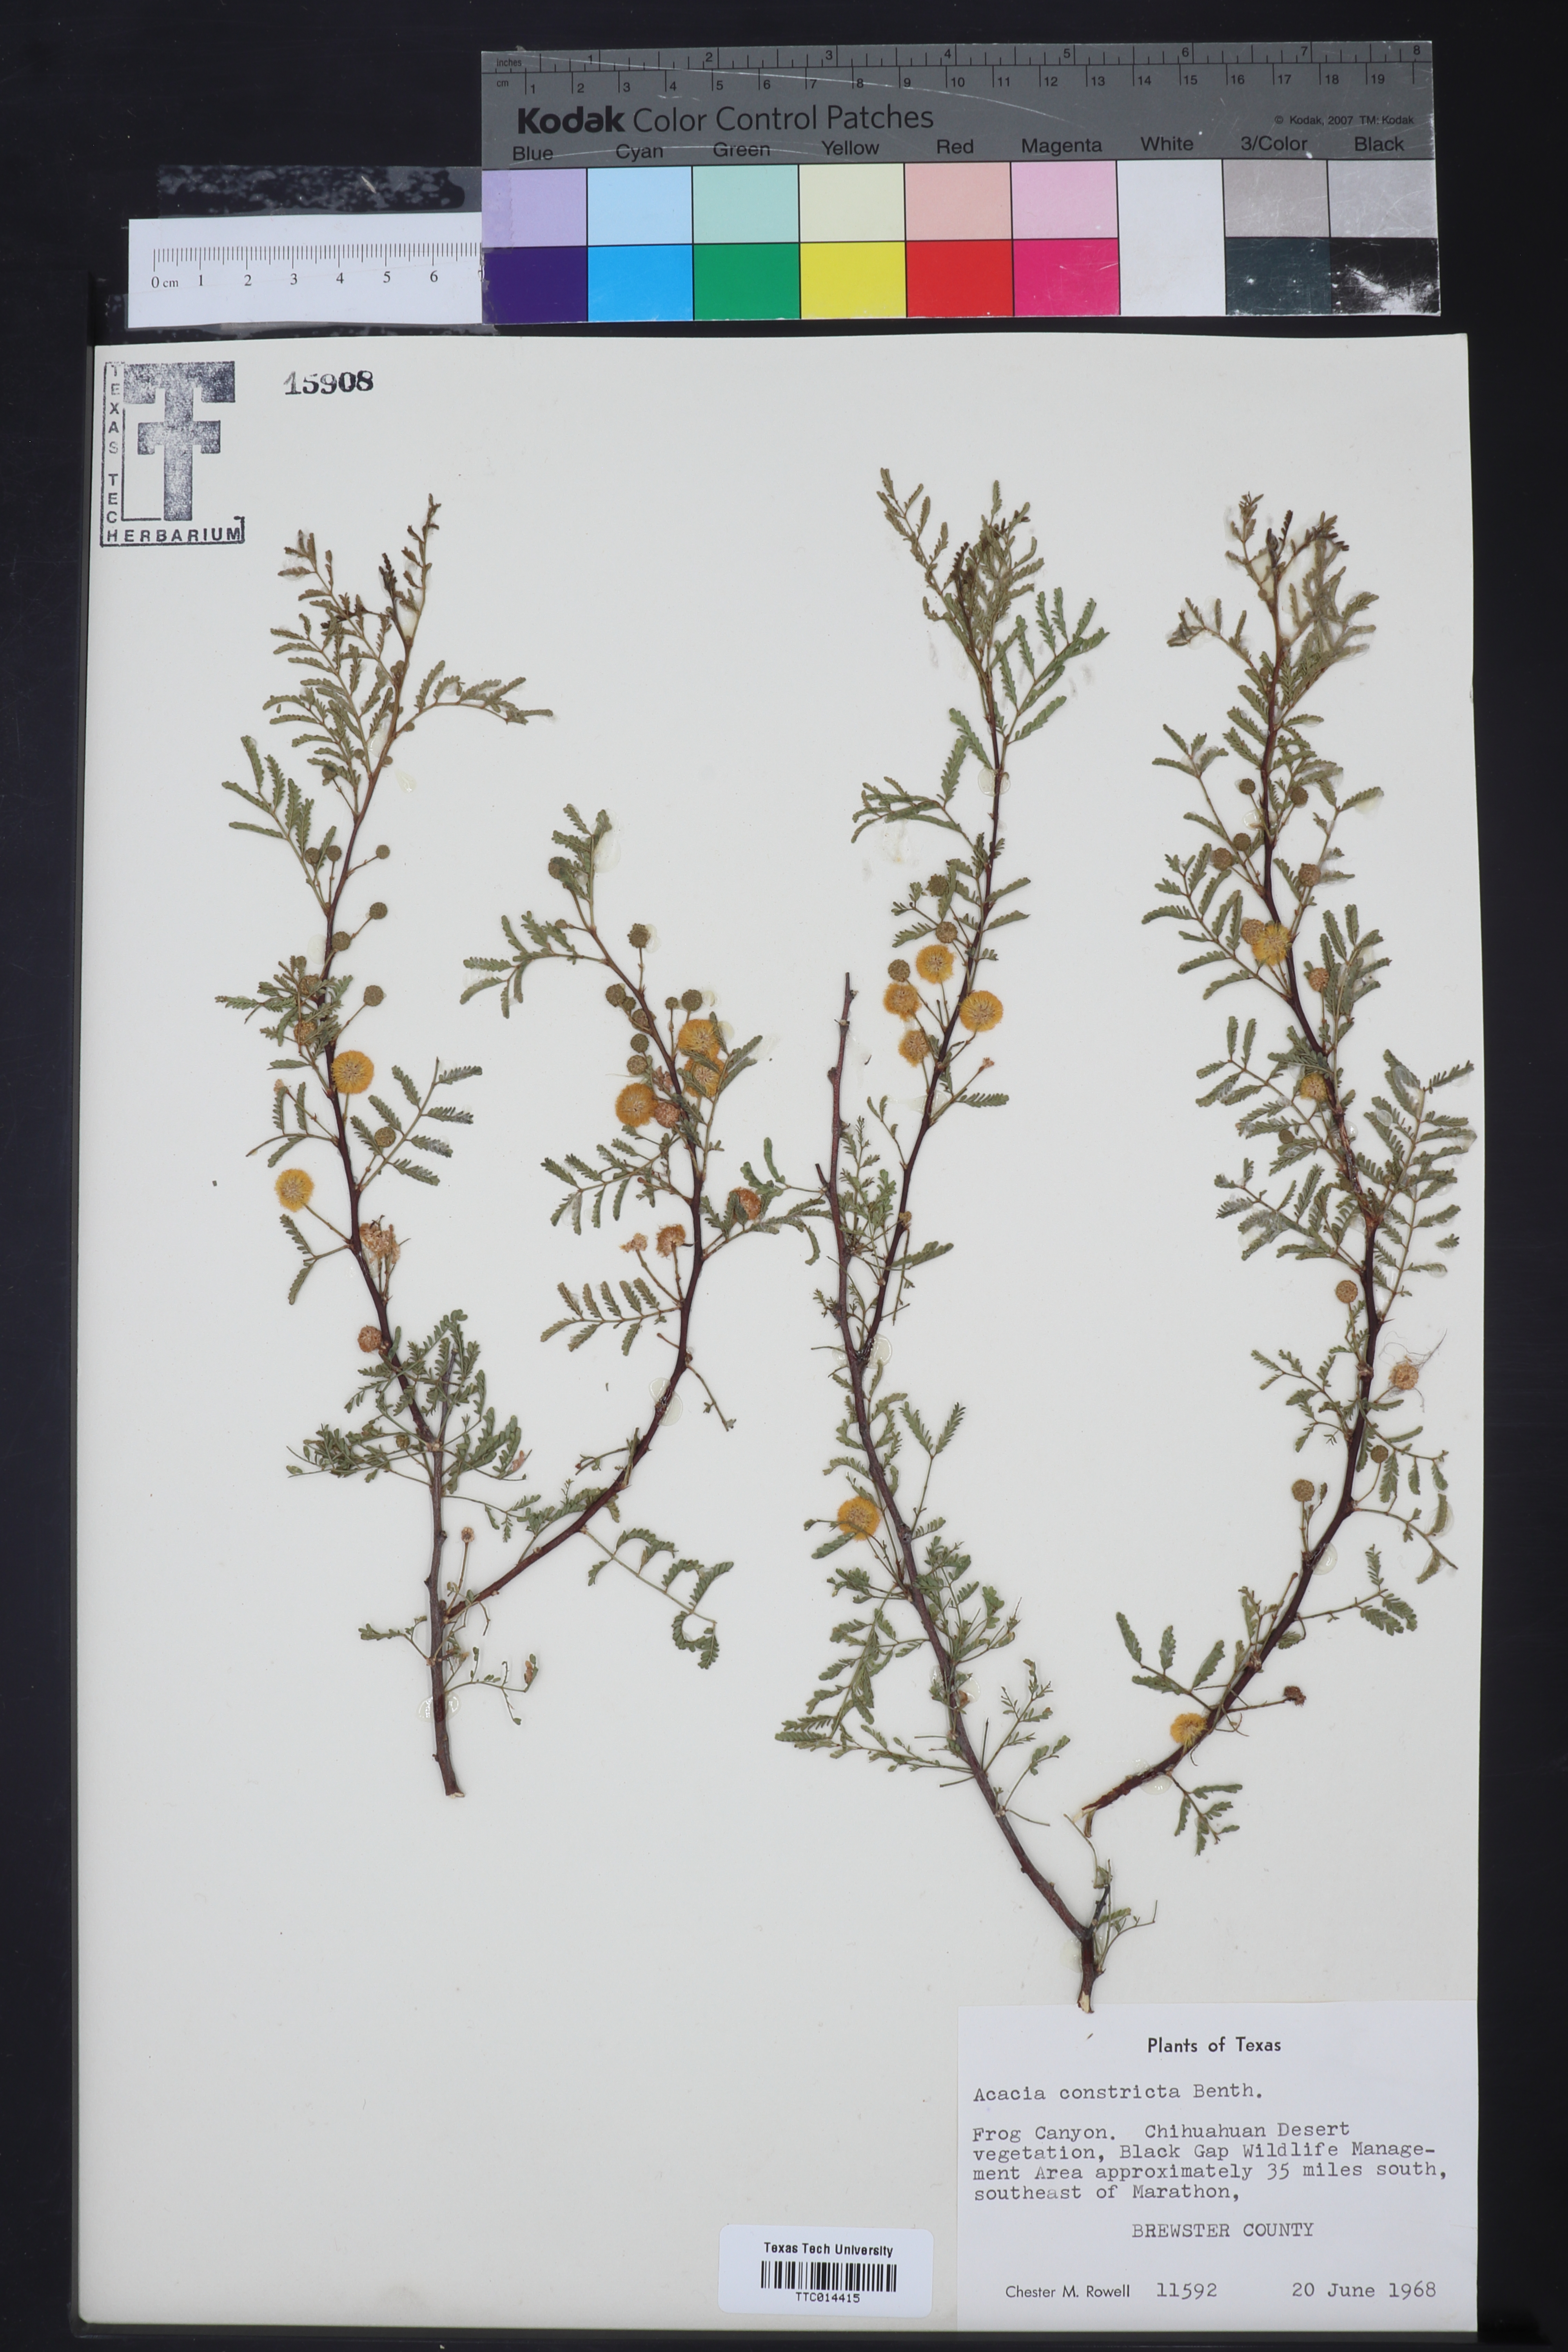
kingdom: Plantae
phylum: Tracheophyta
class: Magnoliopsida
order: Fabales
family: Fabaceae
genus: Vachellia
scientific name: Vachellia constricta
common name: Mescat acacia
